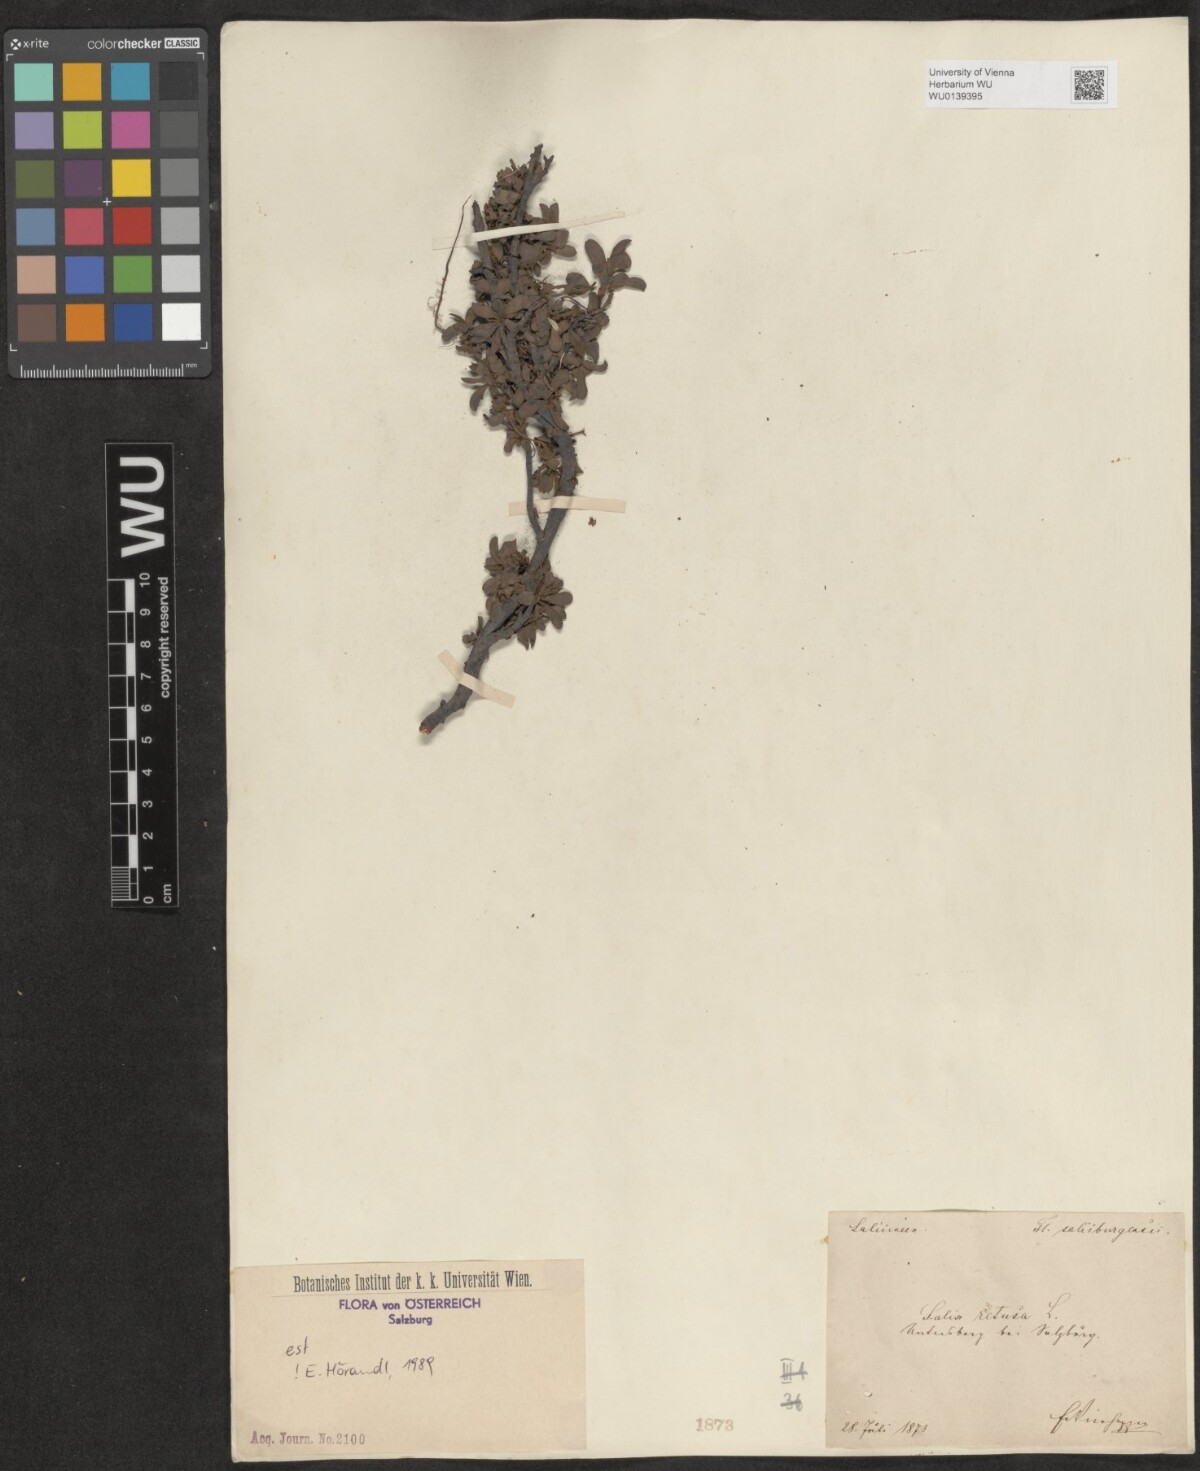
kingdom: Plantae
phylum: Tracheophyta
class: Magnoliopsida
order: Malpighiales
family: Salicaceae
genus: Salix
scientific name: Salix retusa
